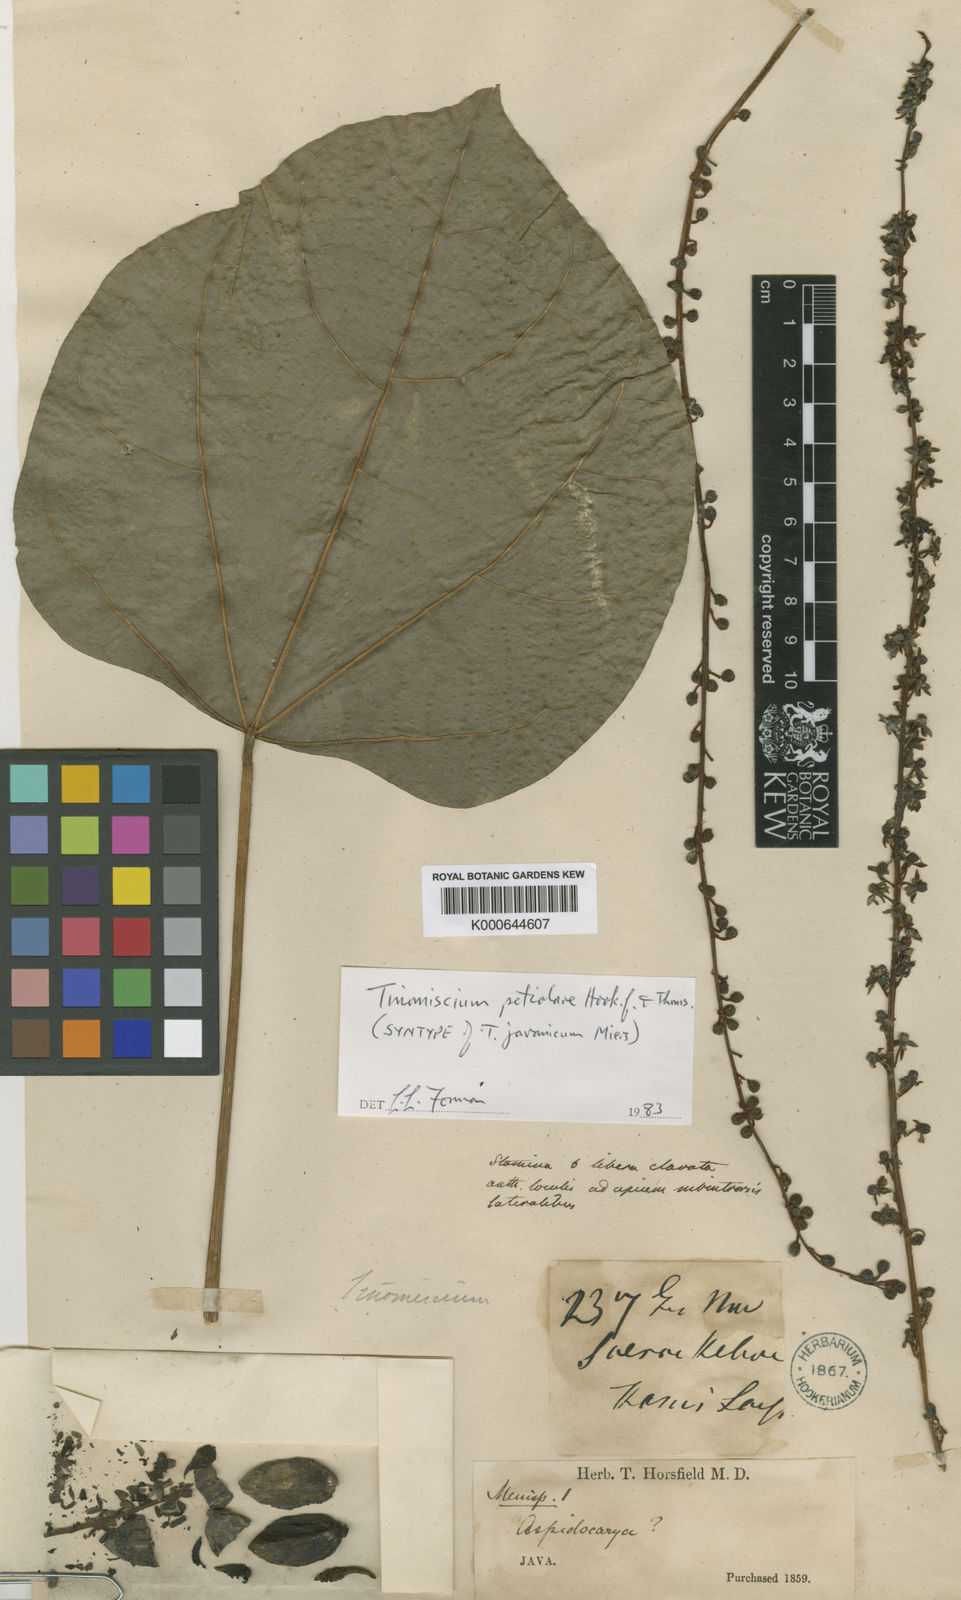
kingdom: Plantae
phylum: Tracheophyta
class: Magnoliopsida
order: Ranunculales
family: Menispermaceae
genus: Tinomiscium
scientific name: Tinomiscium petiolare
